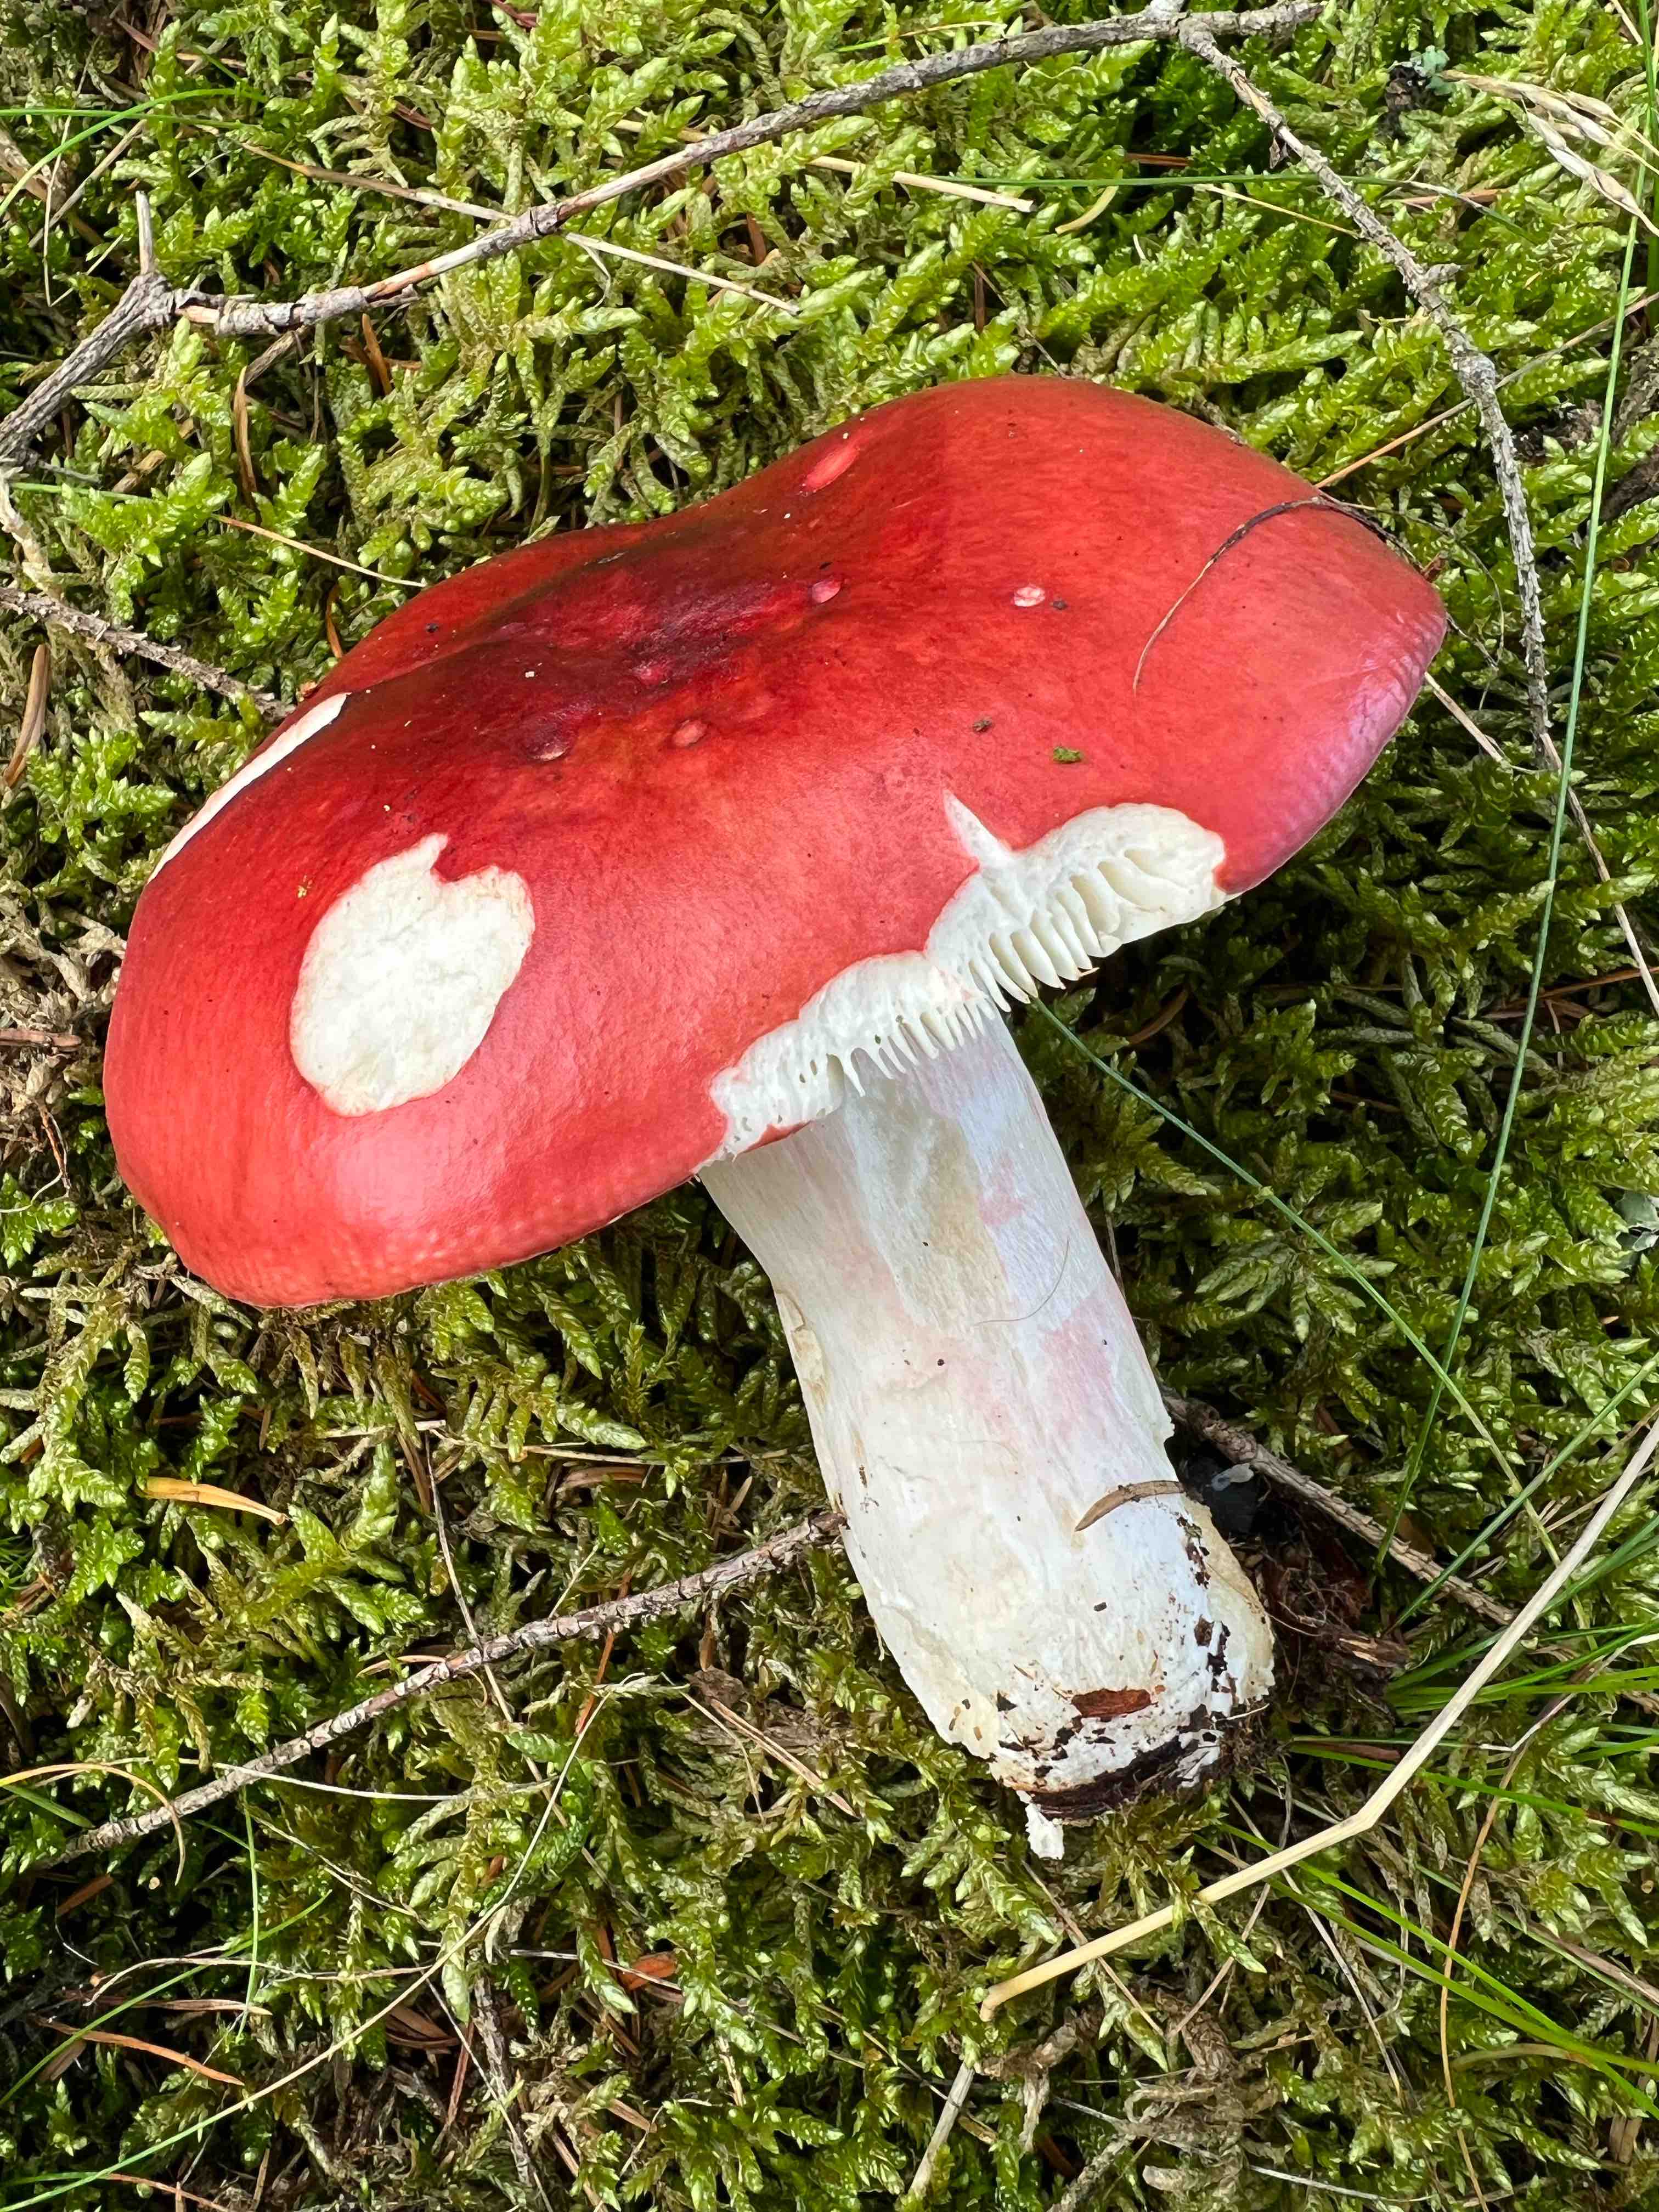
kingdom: Fungi
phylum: Basidiomycota
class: Agaricomycetes
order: Russulales
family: Russulaceae
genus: Russula
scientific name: Russula paludosa
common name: prægtig skørhat
